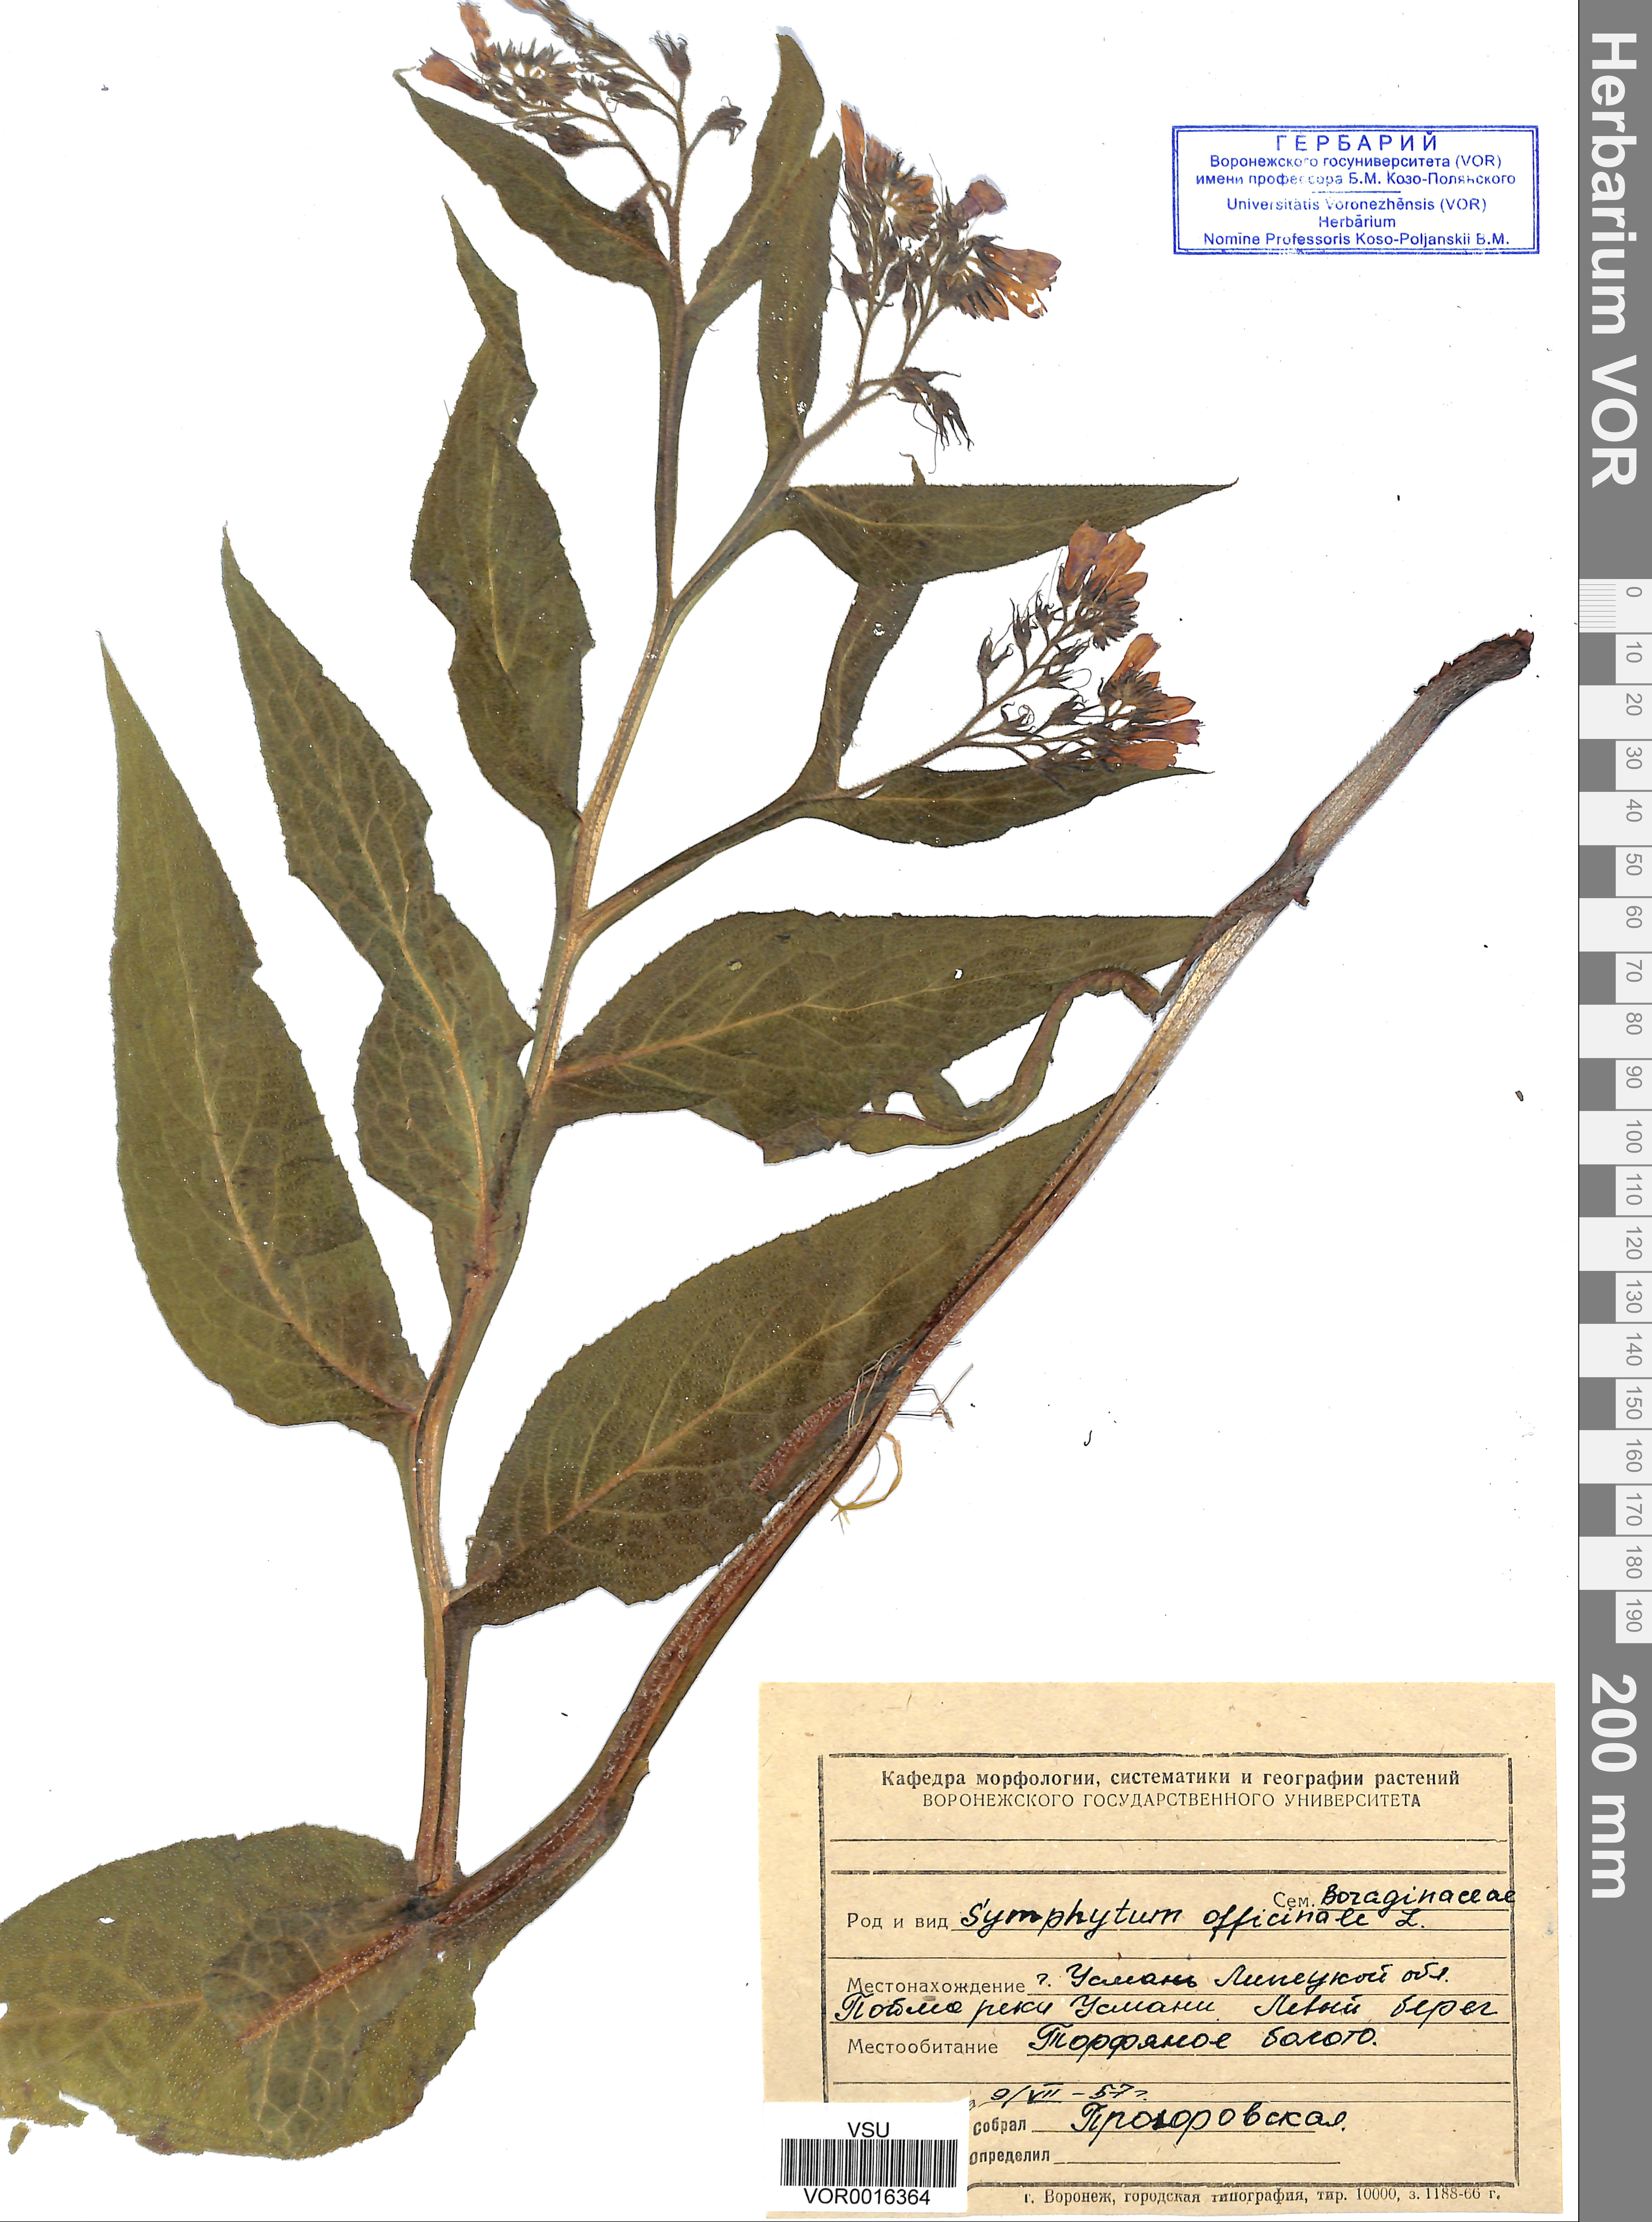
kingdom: Plantae
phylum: Tracheophyta
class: Magnoliopsida
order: Boraginales
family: Boraginaceae
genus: Symphytum
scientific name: Symphytum officinale
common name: Common comfrey
